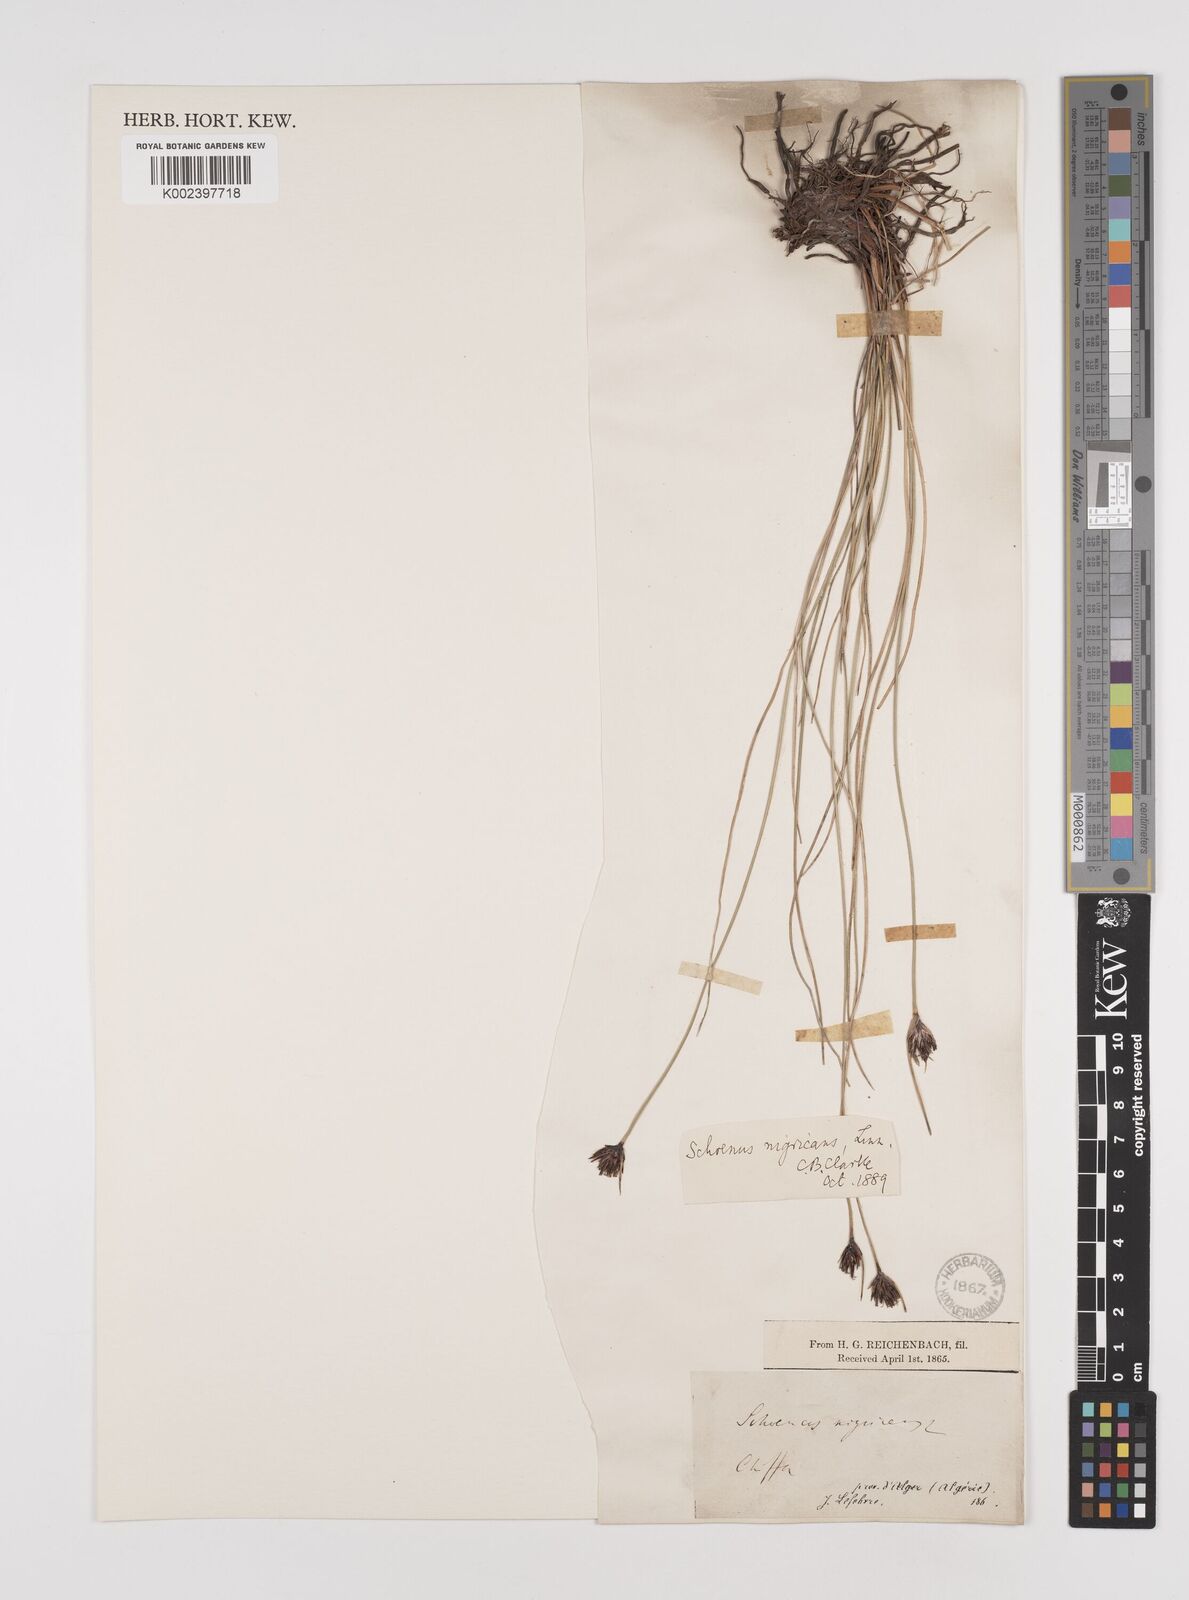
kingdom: Plantae
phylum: Tracheophyta
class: Liliopsida
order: Poales
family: Cyperaceae
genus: Schoenus
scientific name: Schoenus nigricans
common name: Black bog-rush
